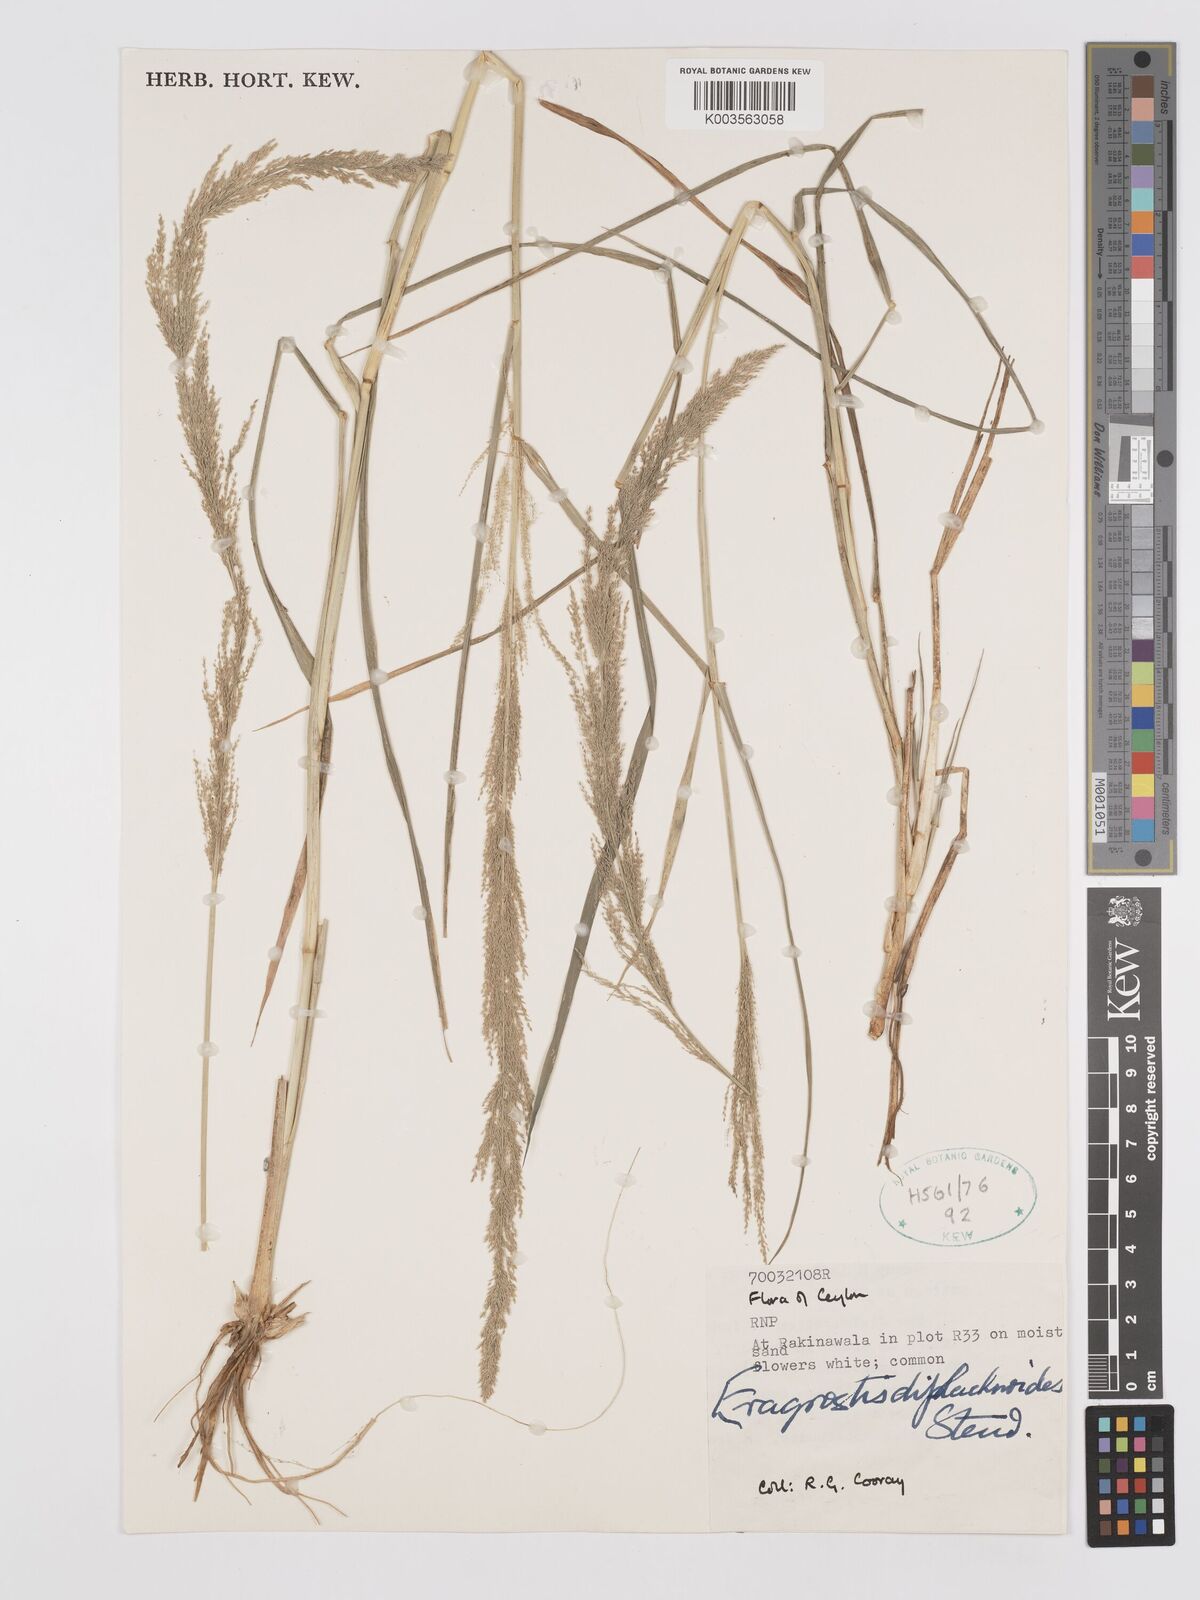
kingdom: Plantae
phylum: Tracheophyta
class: Liliopsida
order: Poales
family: Poaceae
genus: Eragrostis
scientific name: Eragrostis japonica
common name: Pond lovegrass
